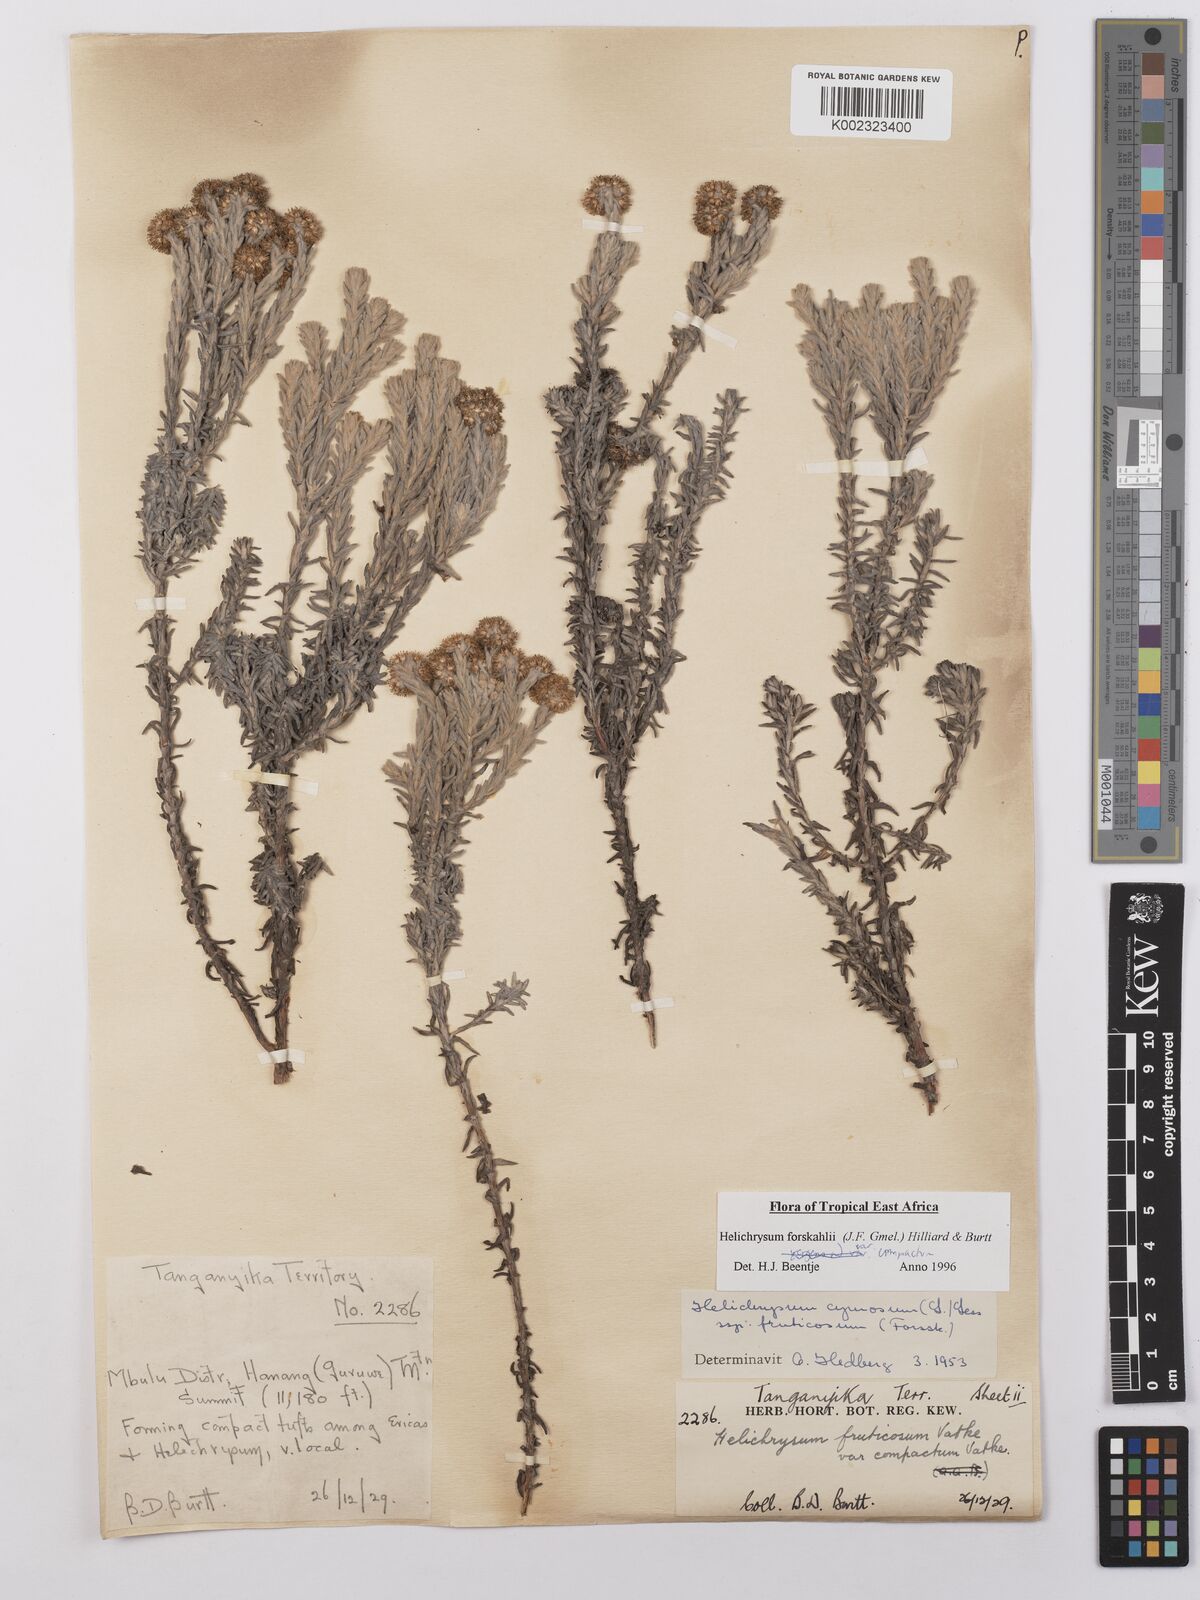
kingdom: Plantae
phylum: Tracheophyta
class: Magnoliopsida
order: Asterales
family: Asteraceae
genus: Helichrysum
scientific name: Helichrysum forskahlii
